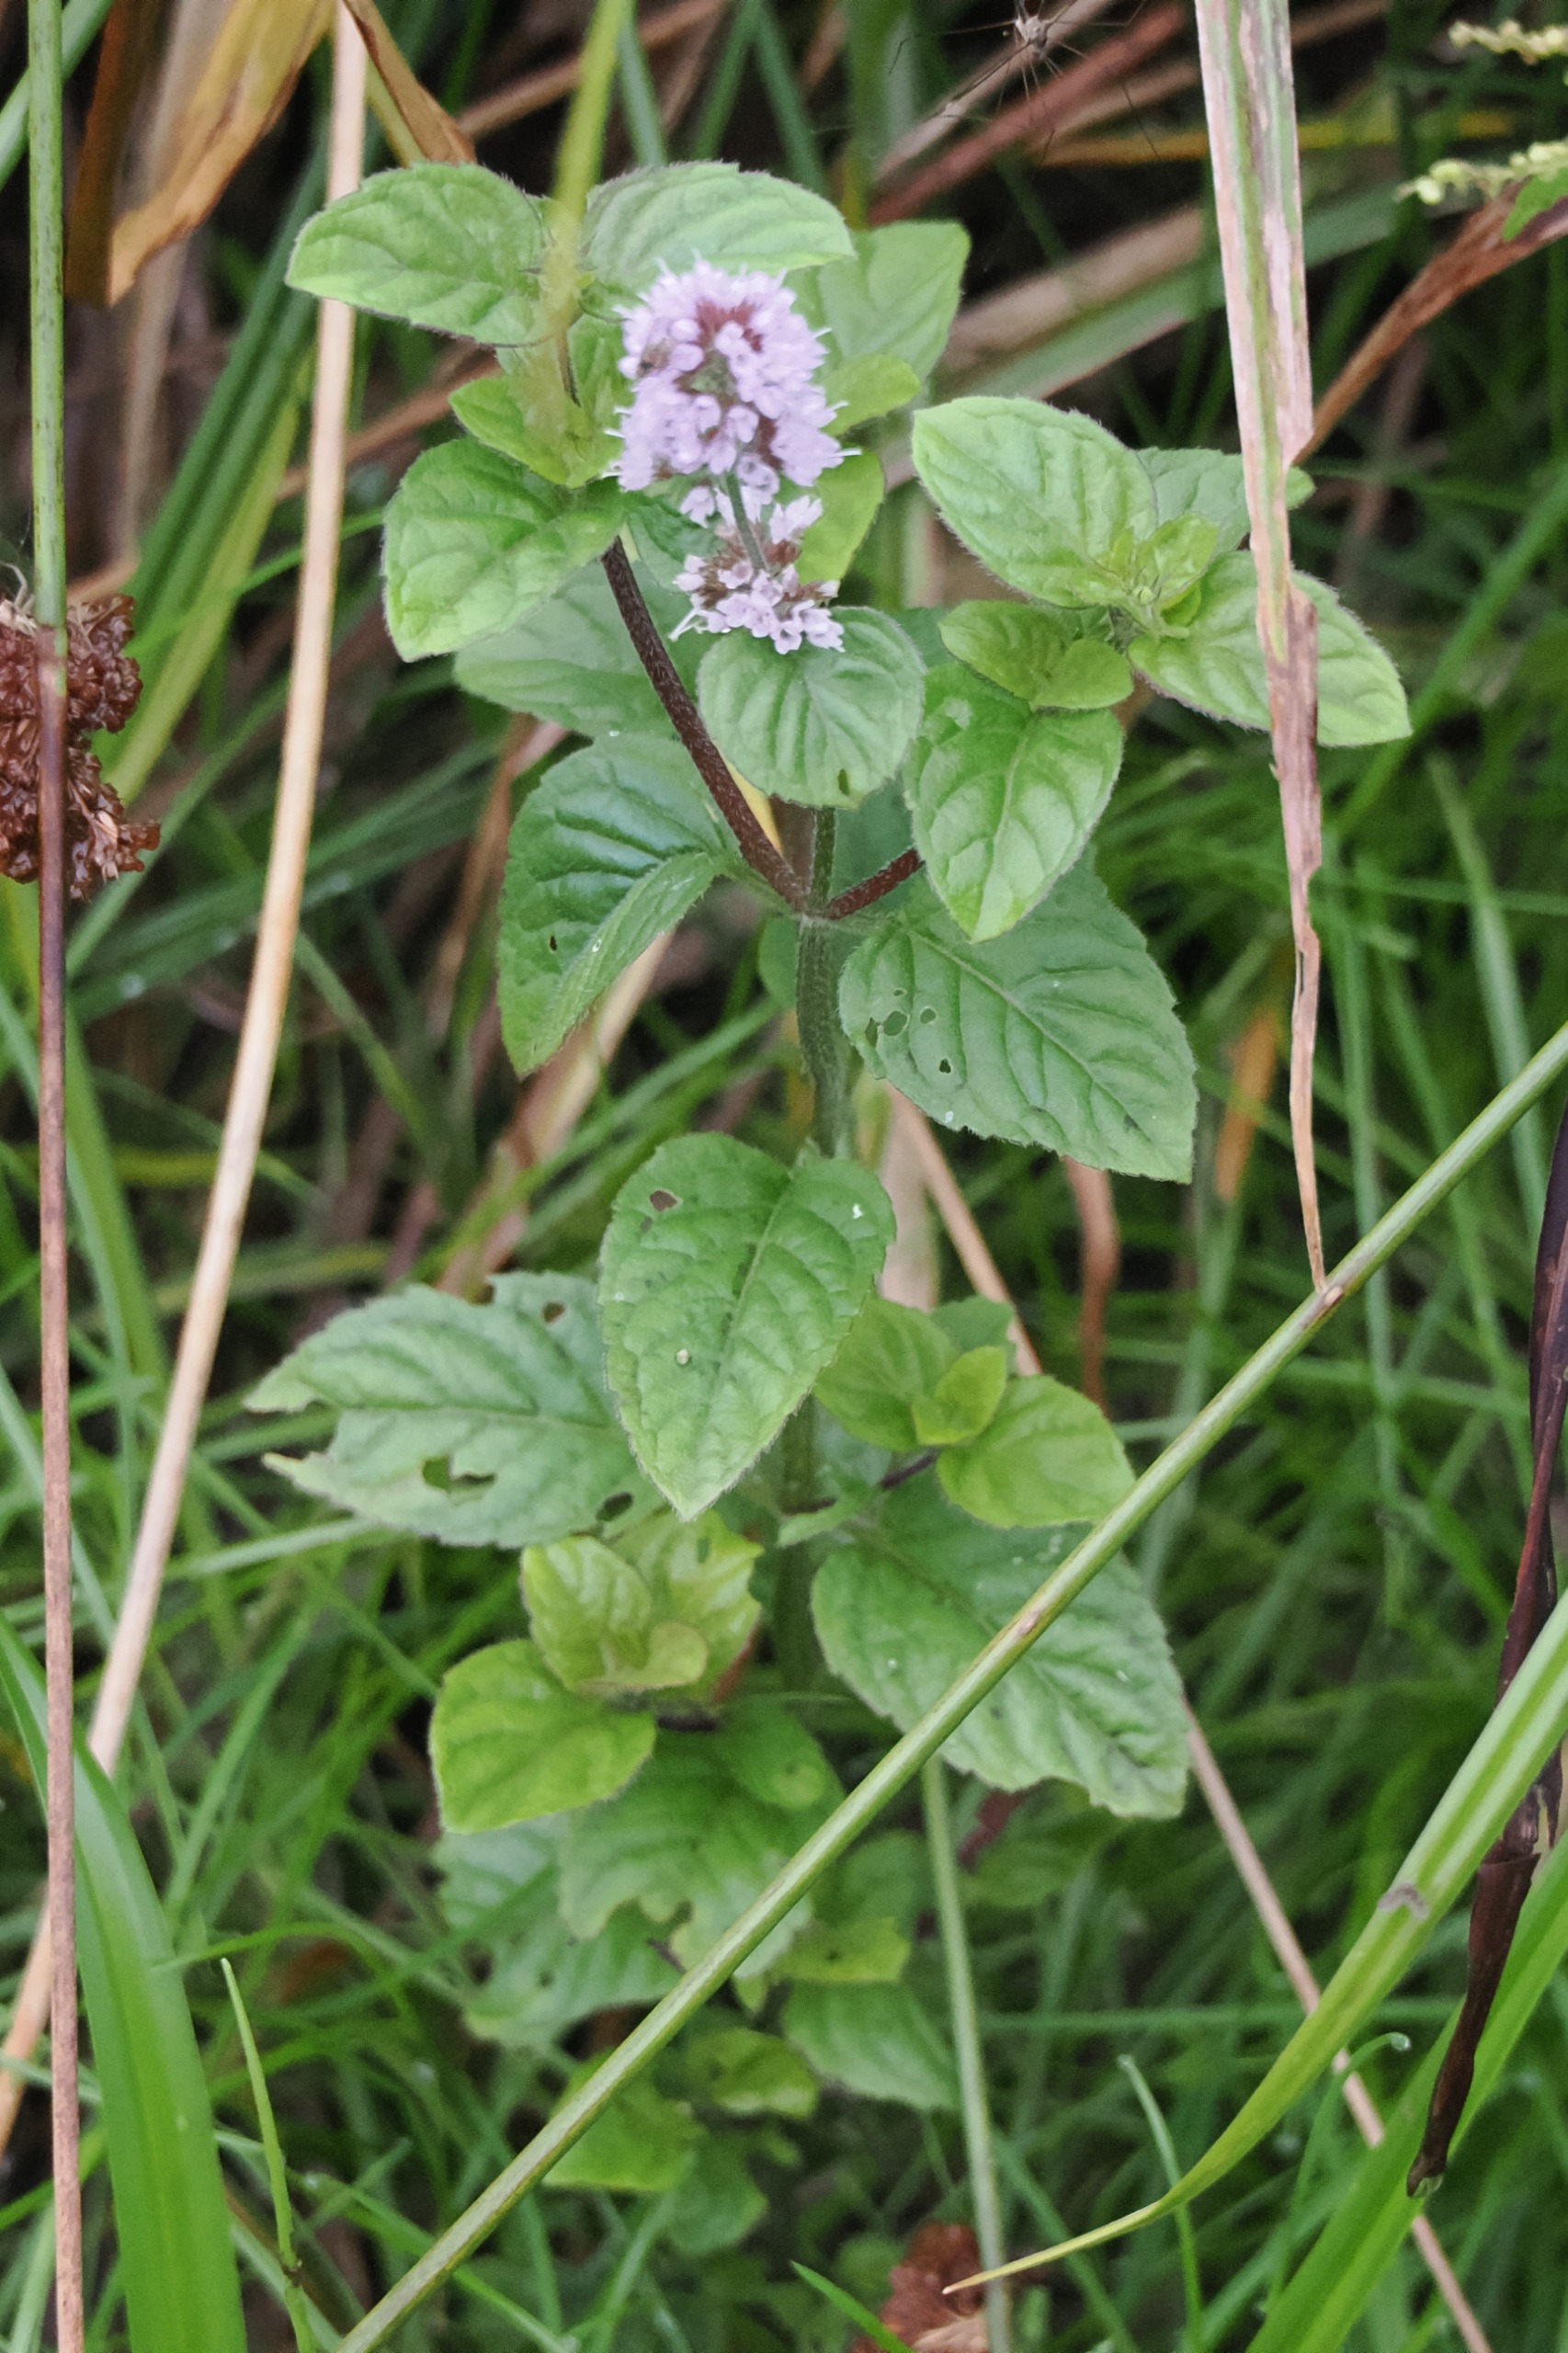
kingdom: Plantae
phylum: Tracheophyta
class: Magnoliopsida
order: Lamiales
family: Lamiaceae
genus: Mentha
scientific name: Mentha aquatica
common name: Vand-mynte
